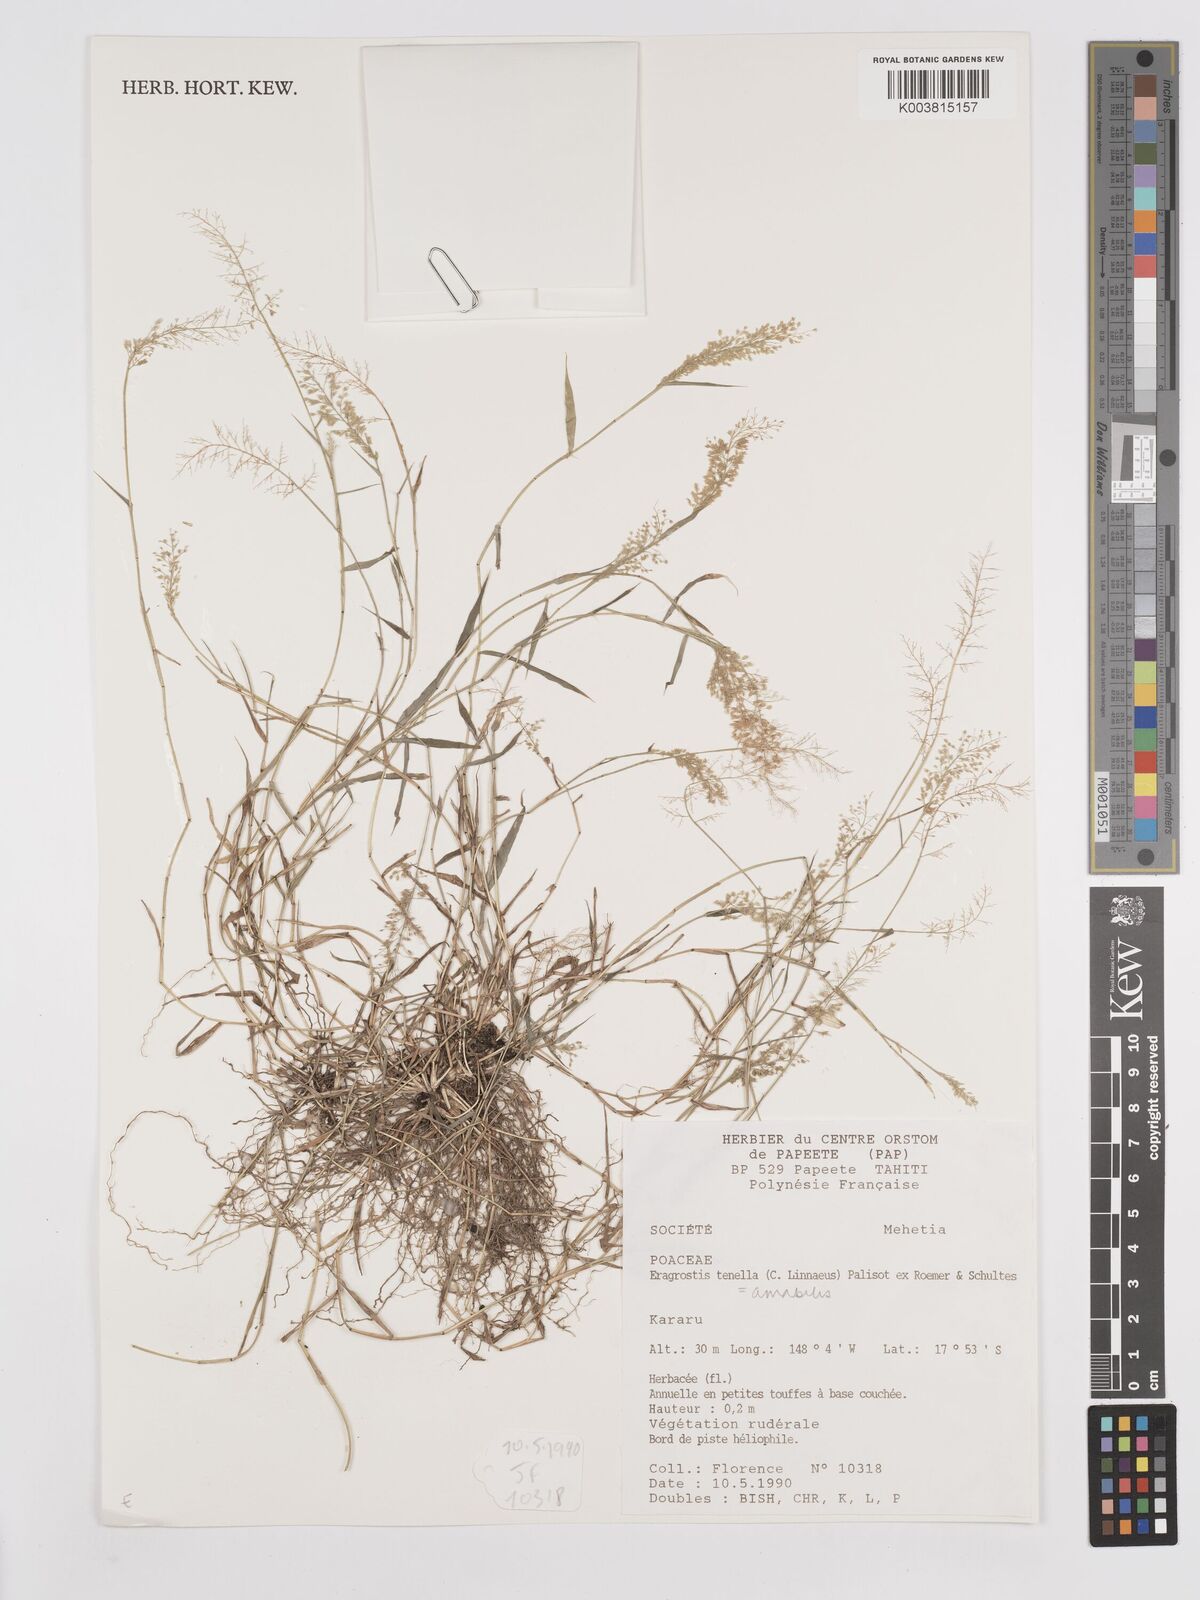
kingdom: Plantae
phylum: Tracheophyta
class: Liliopsida
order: Poales
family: Poaceae
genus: Eragrostis
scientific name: Eragrostis tenella
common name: Japanese lovegrass
